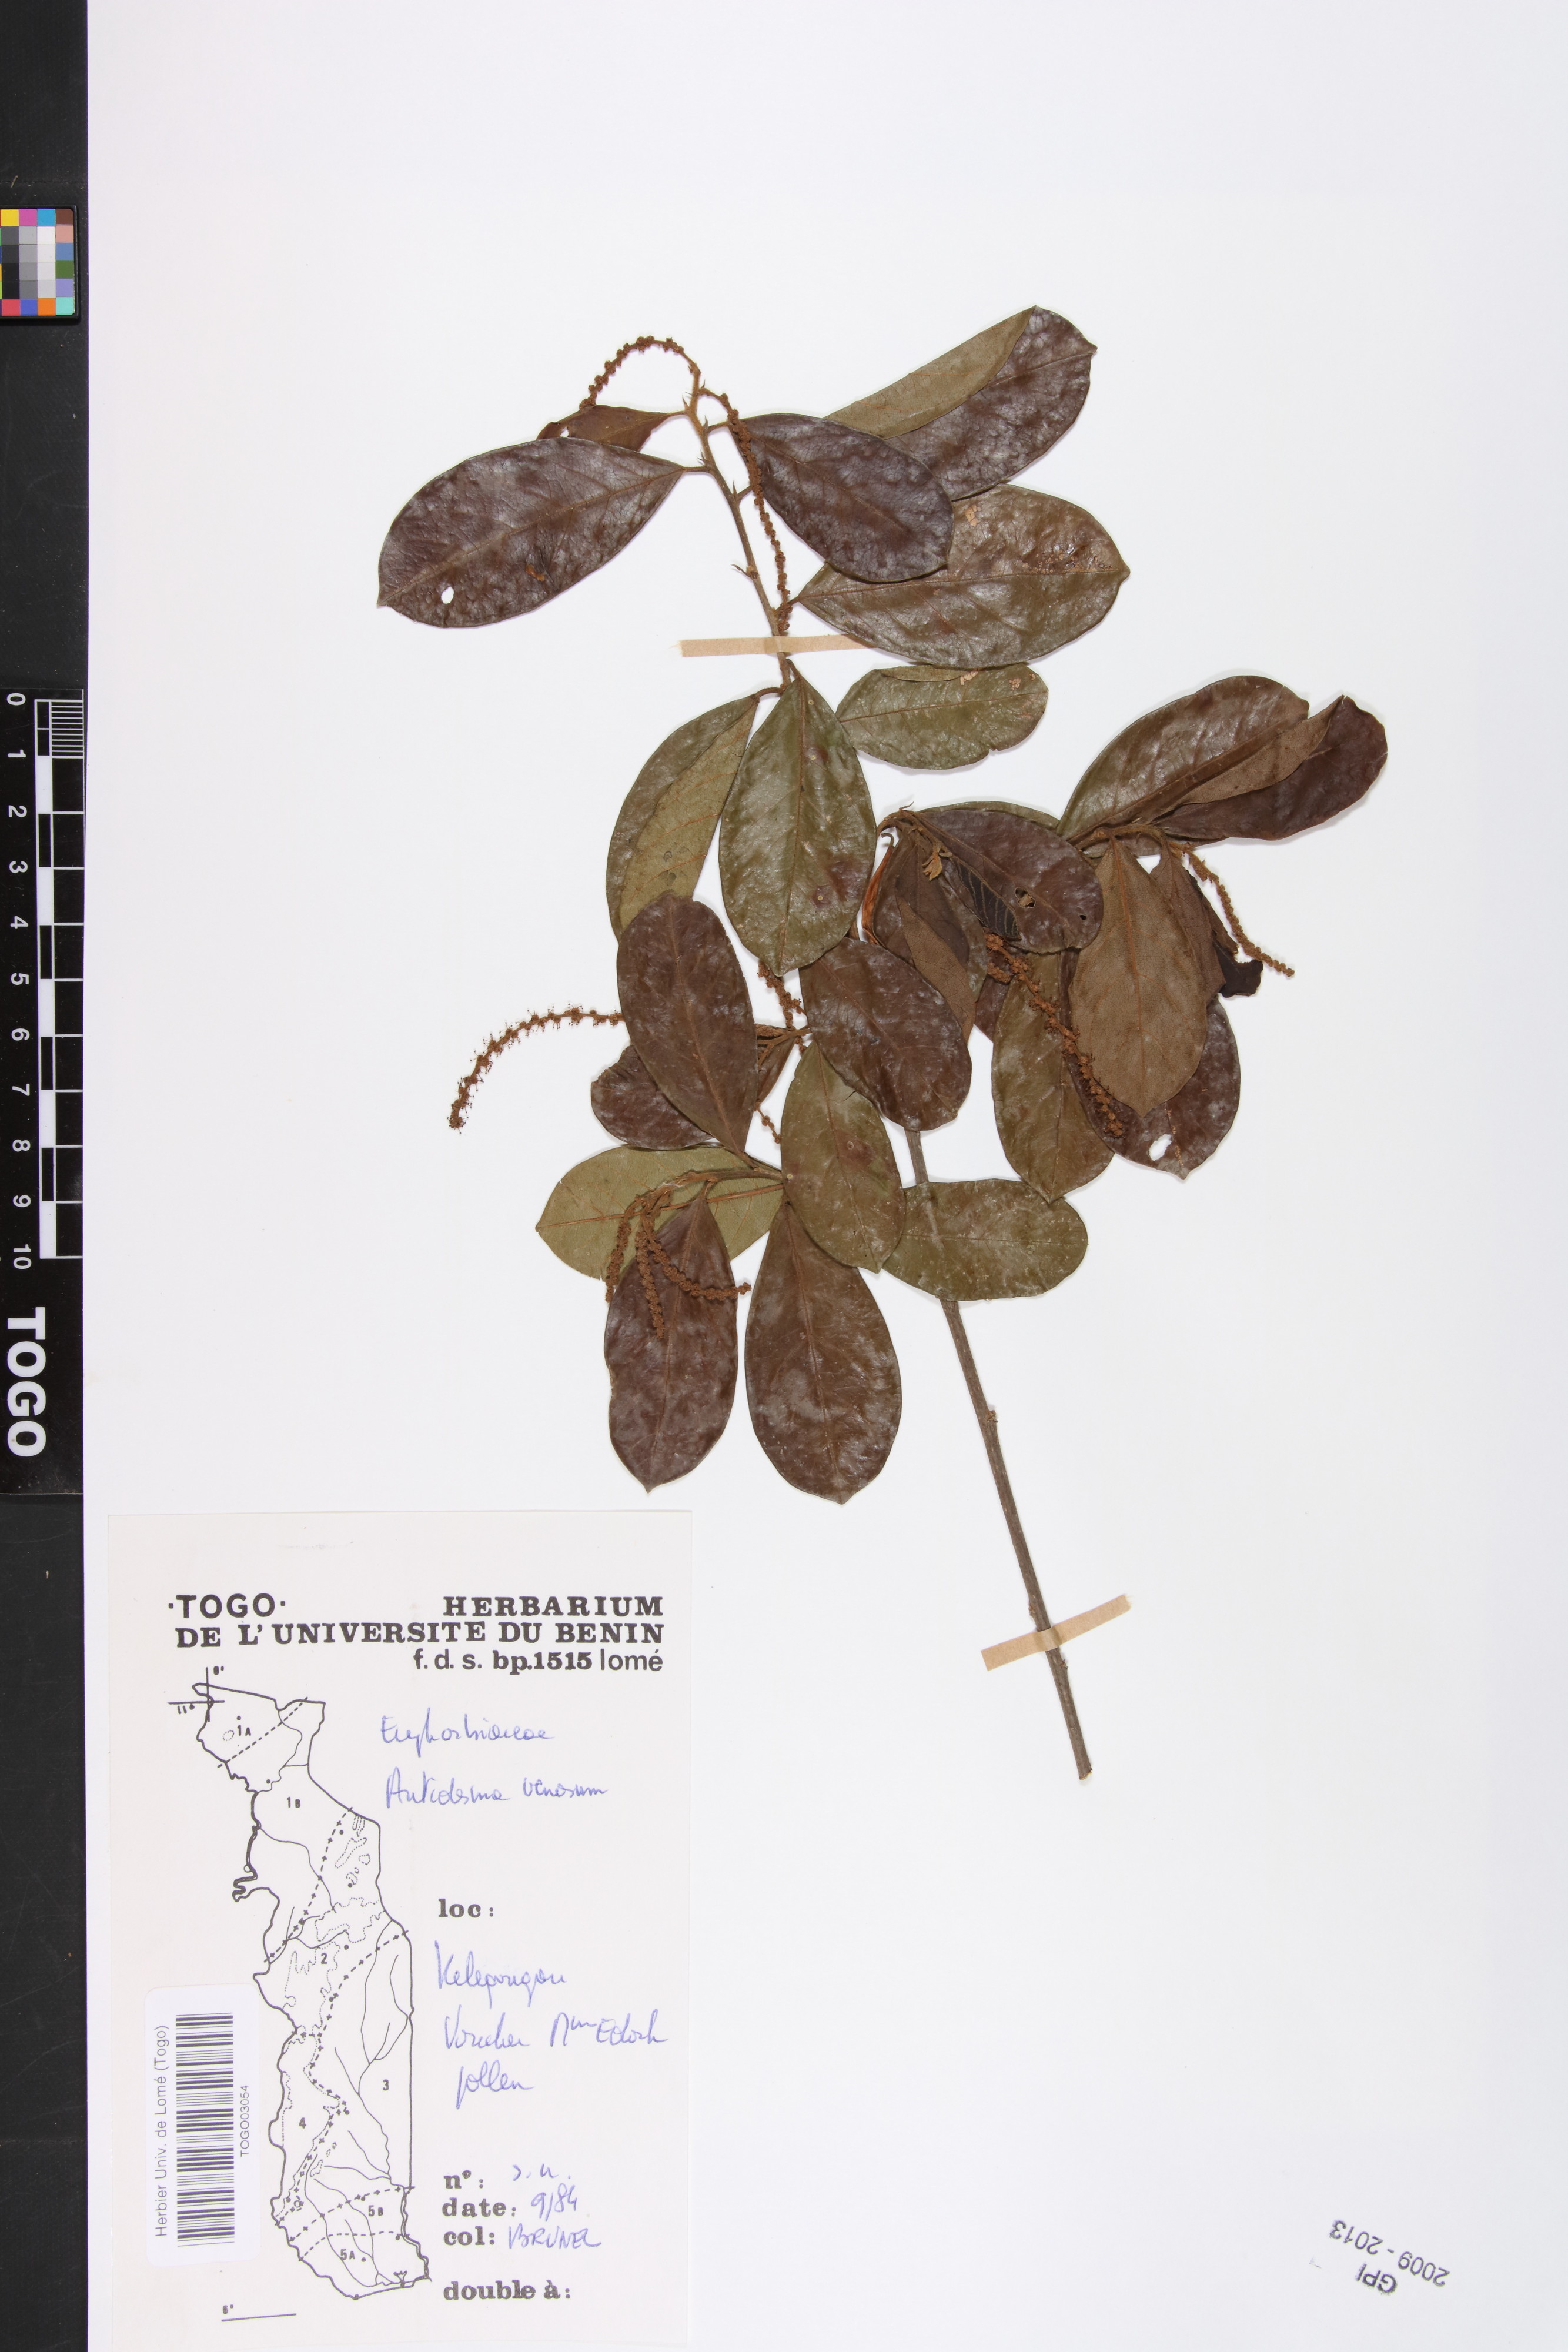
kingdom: Plantae
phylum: Tracheophyta
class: Magnoliopsida
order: Malpighiales
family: Phyllanthaceae
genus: Antidesma
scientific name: Antidesma venosum
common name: Tassel-berry
